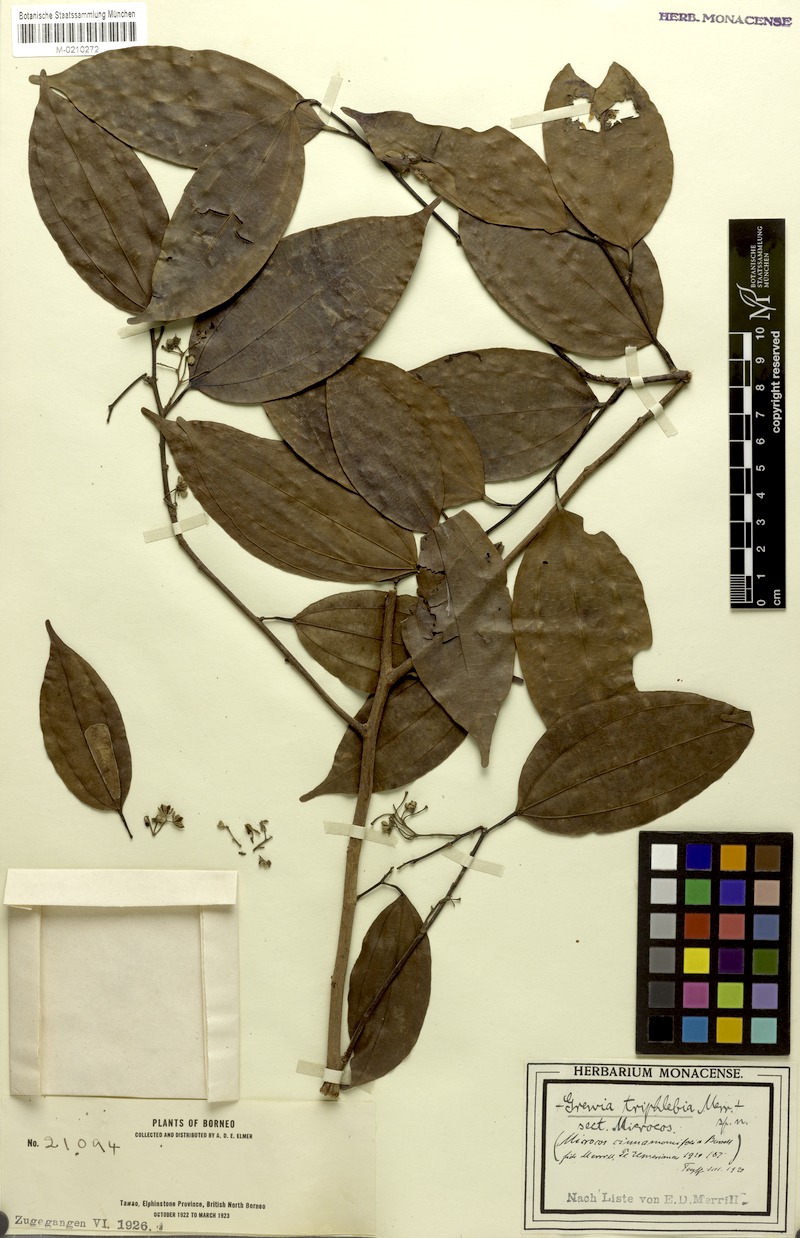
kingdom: Plantae
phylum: Tracheophyta
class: Magnoliopsida
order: Malvales
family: Malvaceae
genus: Microcos
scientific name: Microcos cinnamomifolia
